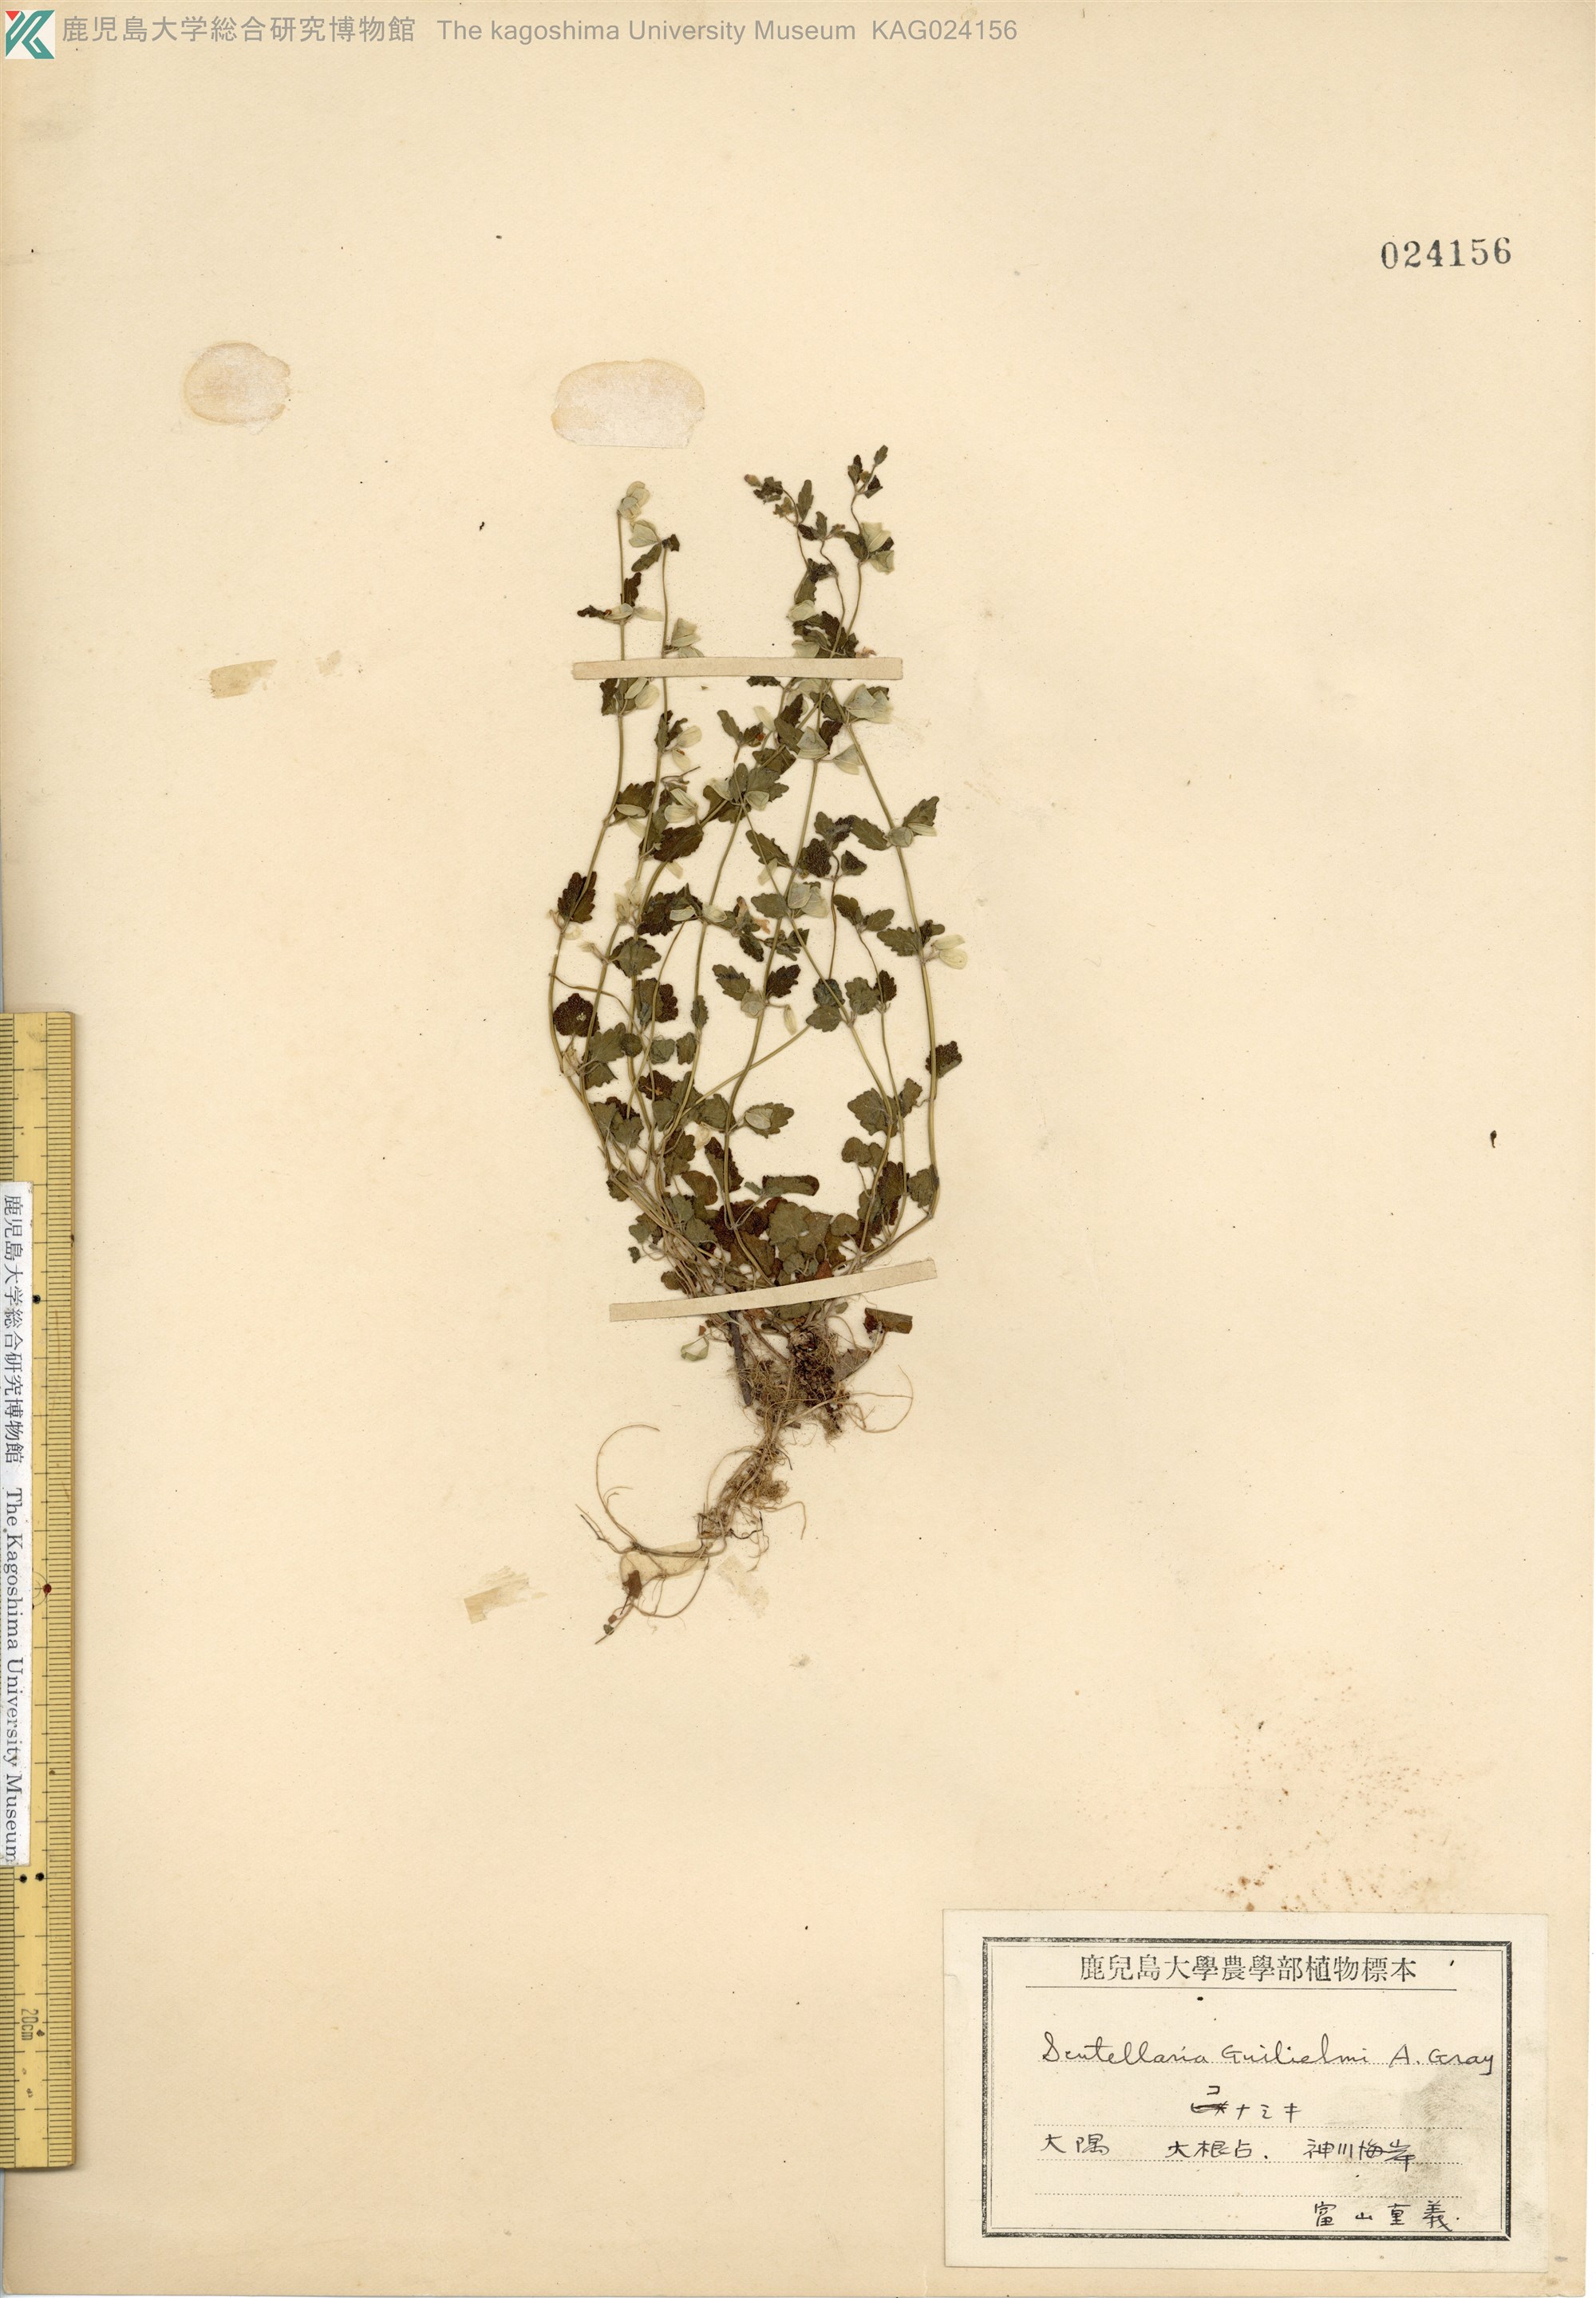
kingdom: Plantae
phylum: Tracheophyta
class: Magnoliopsida
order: Lamiales
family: Lamiaceae
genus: Scutellaria
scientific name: Scutellaria guilielmi
